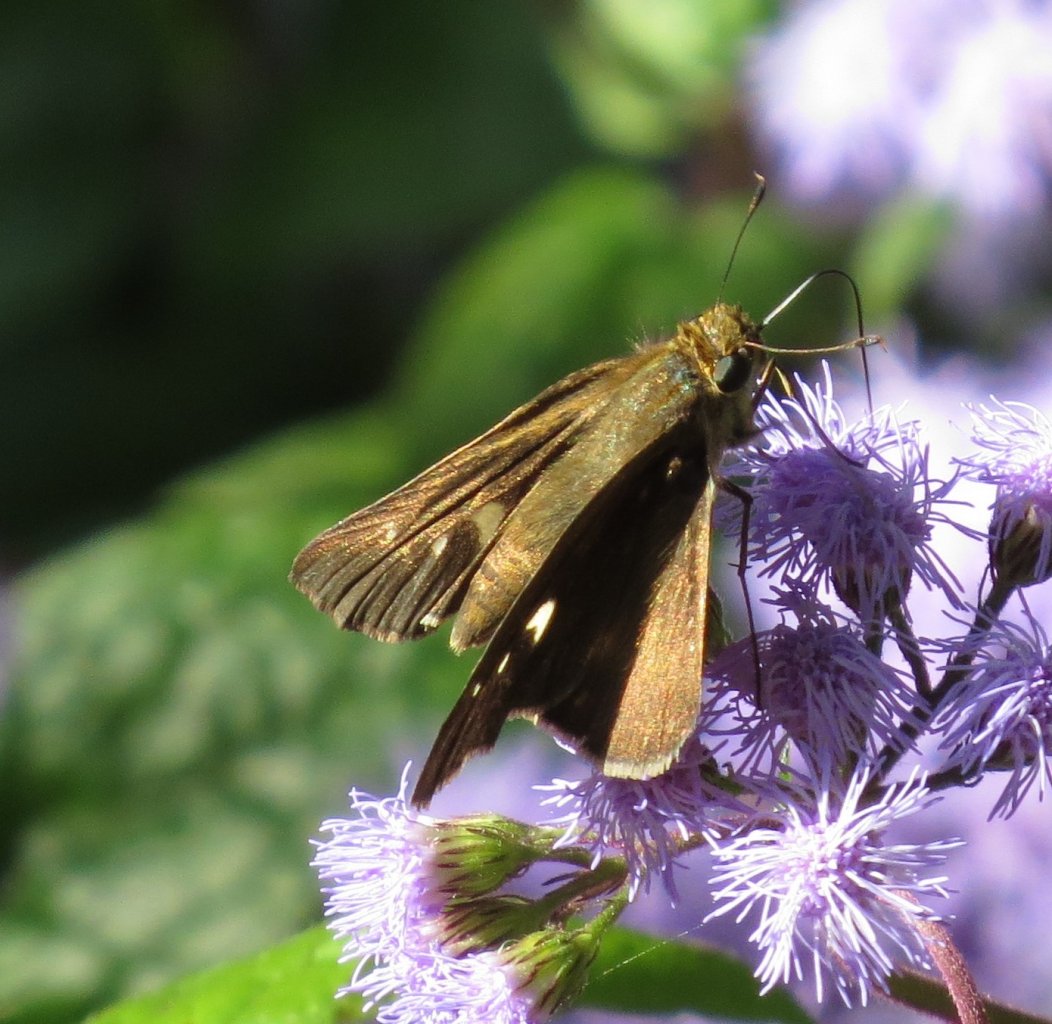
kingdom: Animalia
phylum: Arthropoda
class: Insecta
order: Lepidoptera
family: Hesperiidae
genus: Panoquina
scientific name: Panoquina ocola
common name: Ocola Skipper
